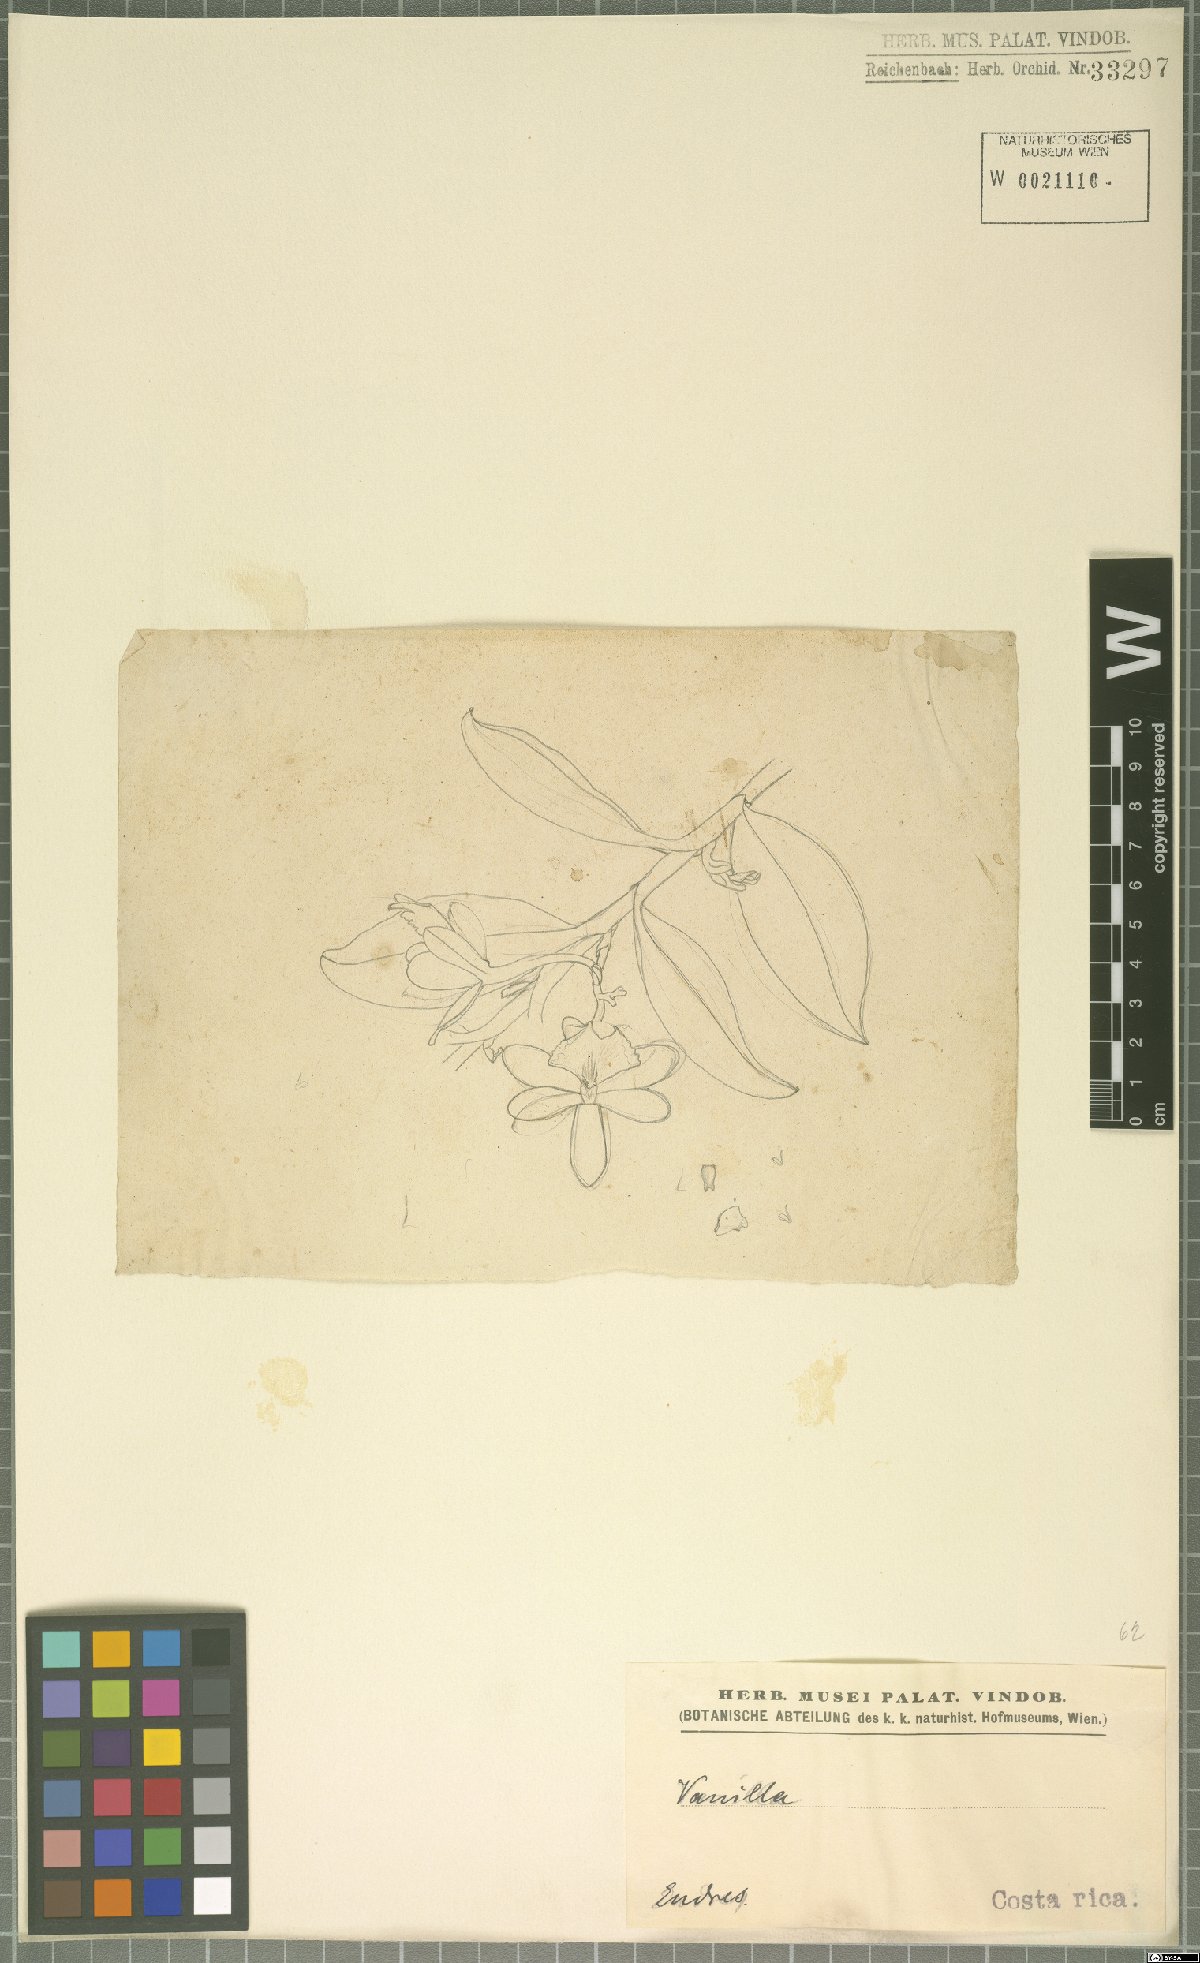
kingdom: Plantae
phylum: Tracheophyta
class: Liliopsida
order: Asparagales
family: Orchidaceae
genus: Epidendrum
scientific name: Epidendrum
